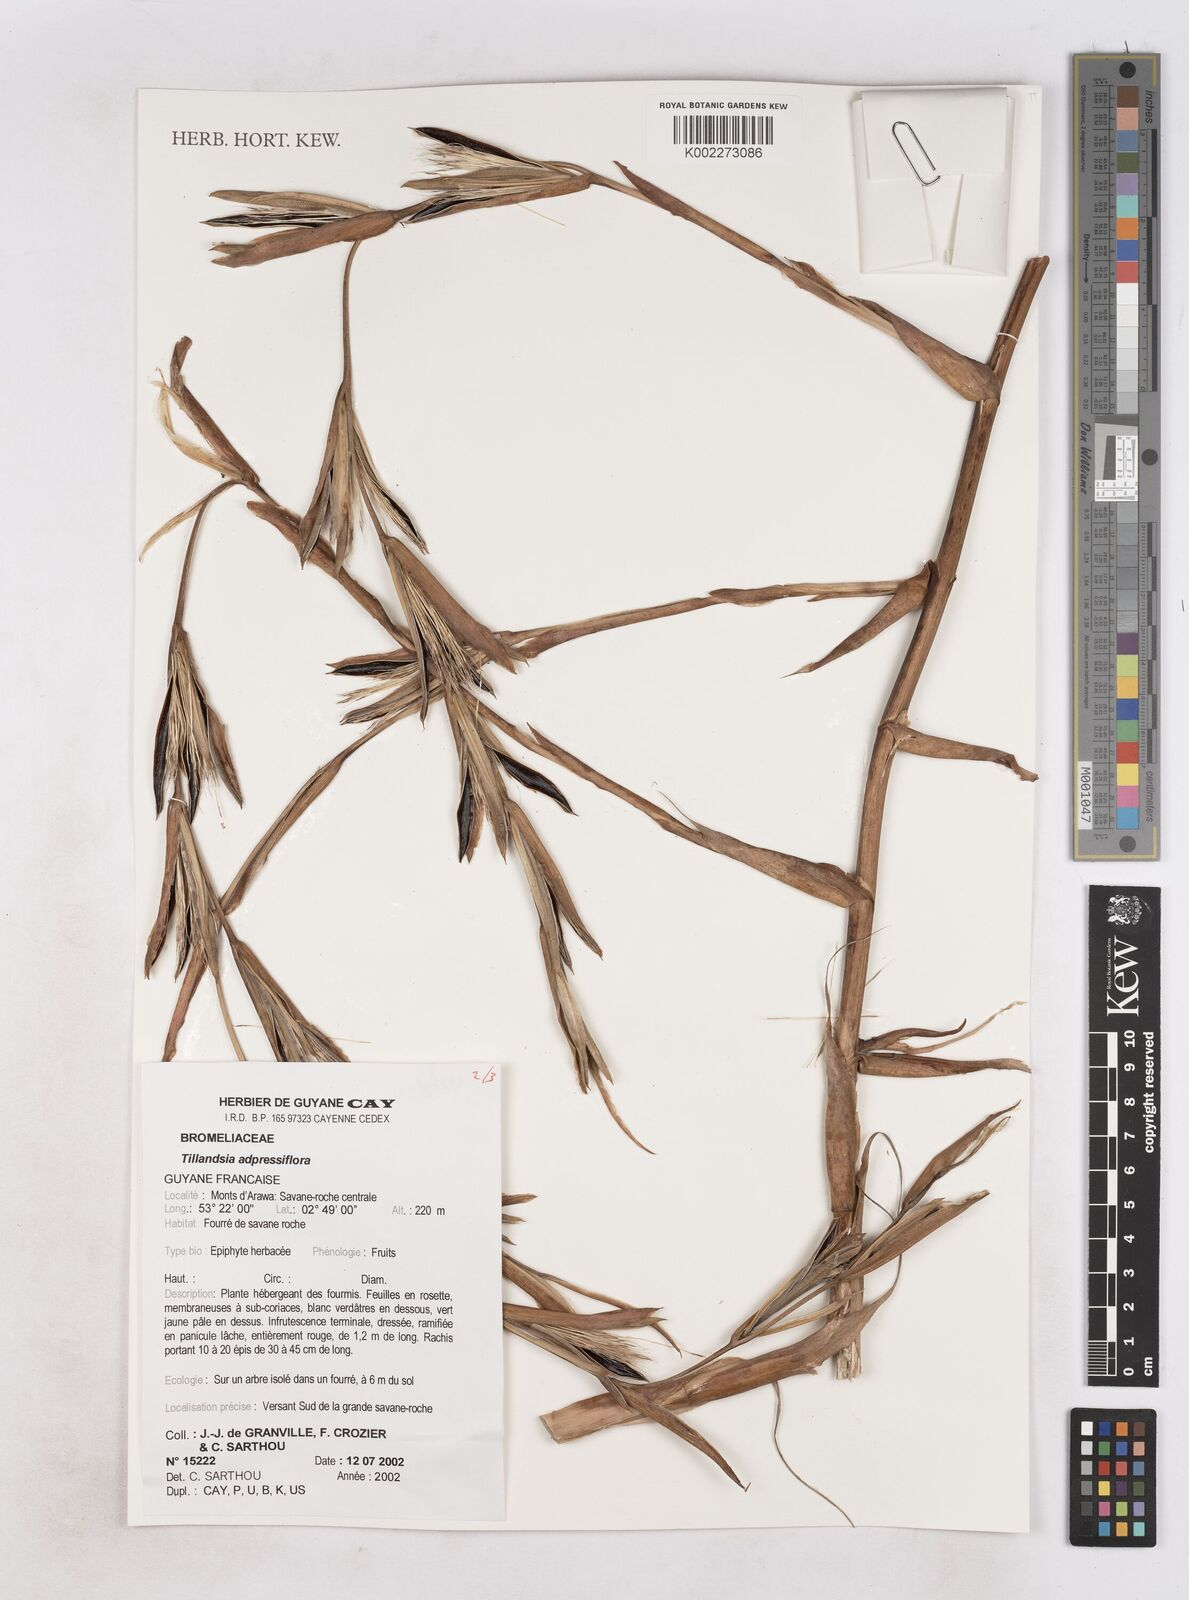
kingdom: Plantae
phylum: Tracheophyta
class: Liliopsida
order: Poales
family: Bromeliaceae
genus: Tillandsia
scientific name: Tillandsia
